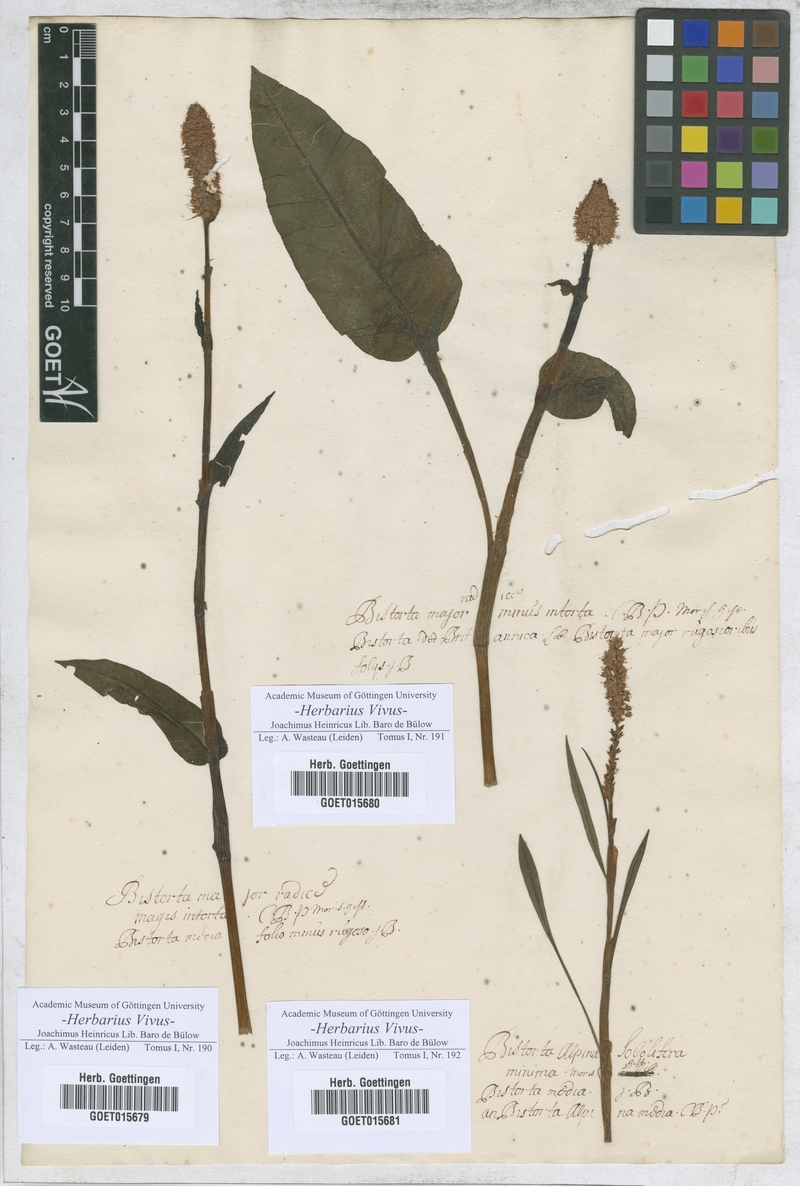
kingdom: Plantae
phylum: Tracheophyta
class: Magnoliopsida
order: Caryophyllales
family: Polygonaceae
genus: Bistorta
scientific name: Bistorta officinalis
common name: Common bistort
